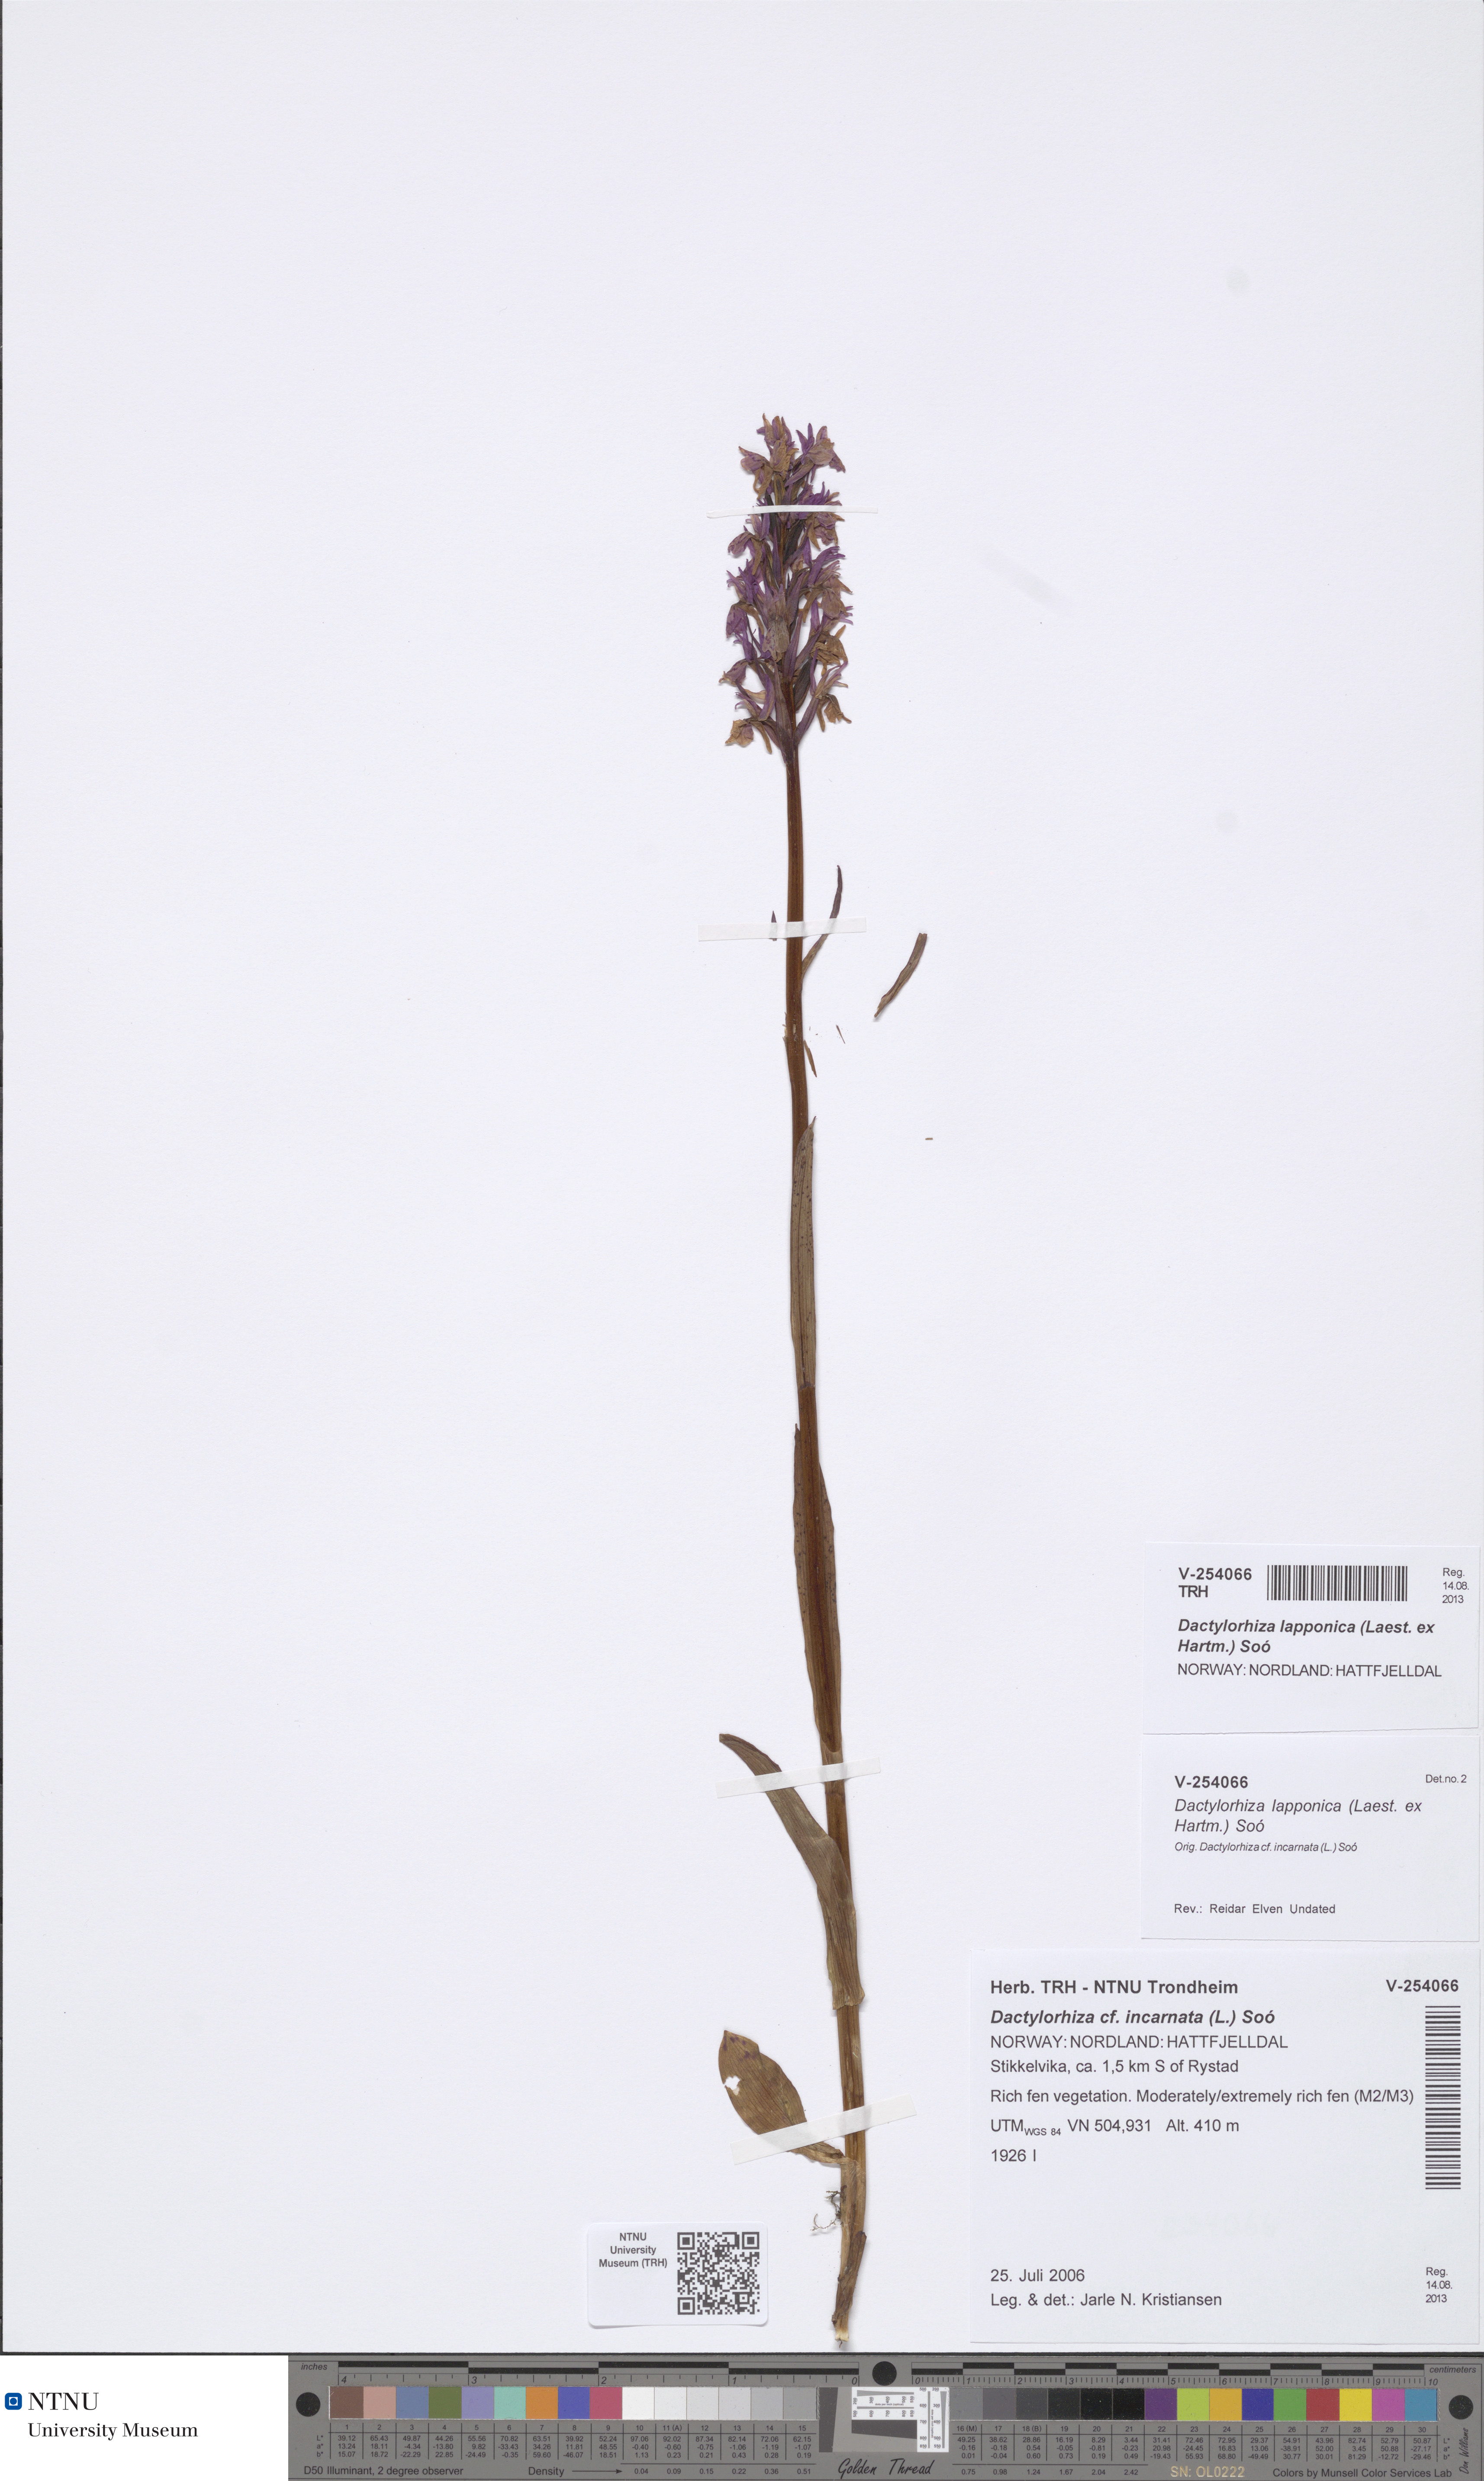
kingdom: Plantae
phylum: Tracheophyta
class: Liliopsida
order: Asparagales
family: Orchidaceae
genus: Dactylorhiza
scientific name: Dactylorhiza majalis
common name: Marsh orchid
